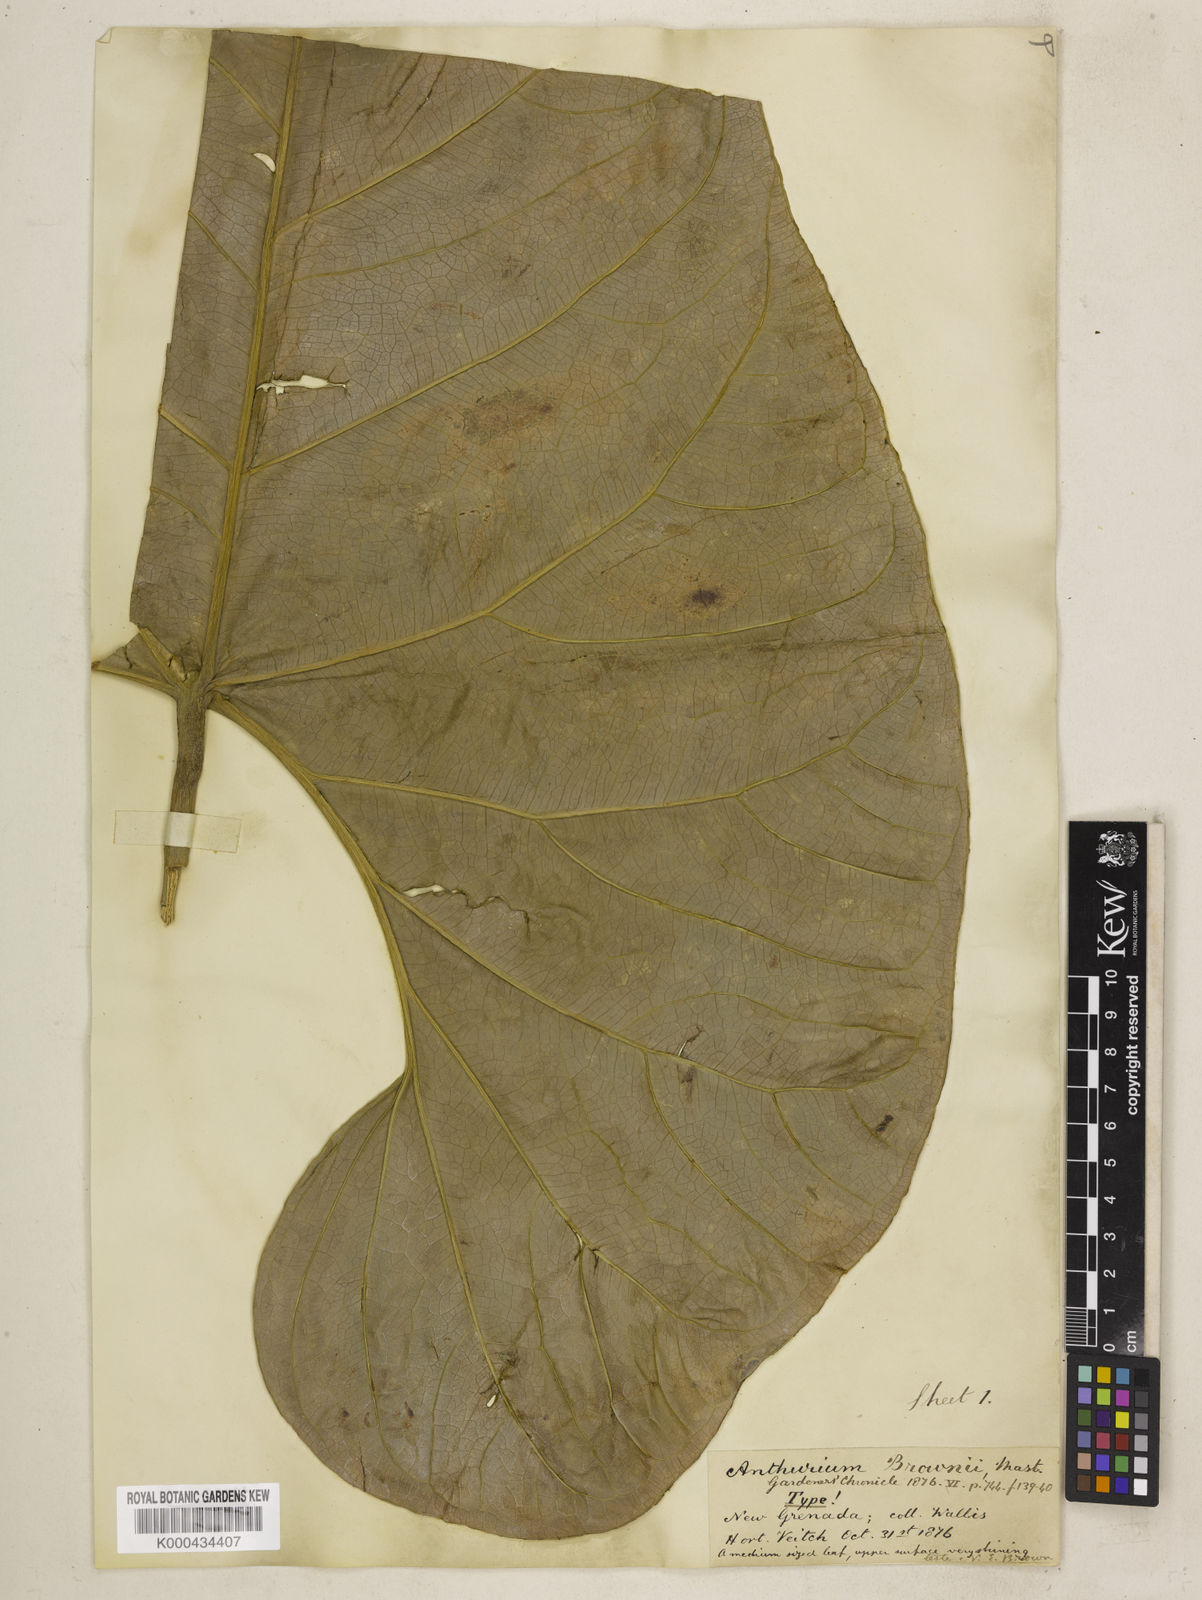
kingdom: Plantae
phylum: Tracheophyta
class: Liliopsida
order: Alismatales
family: Araceae
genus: Anthurium
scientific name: Anthurium brownii
